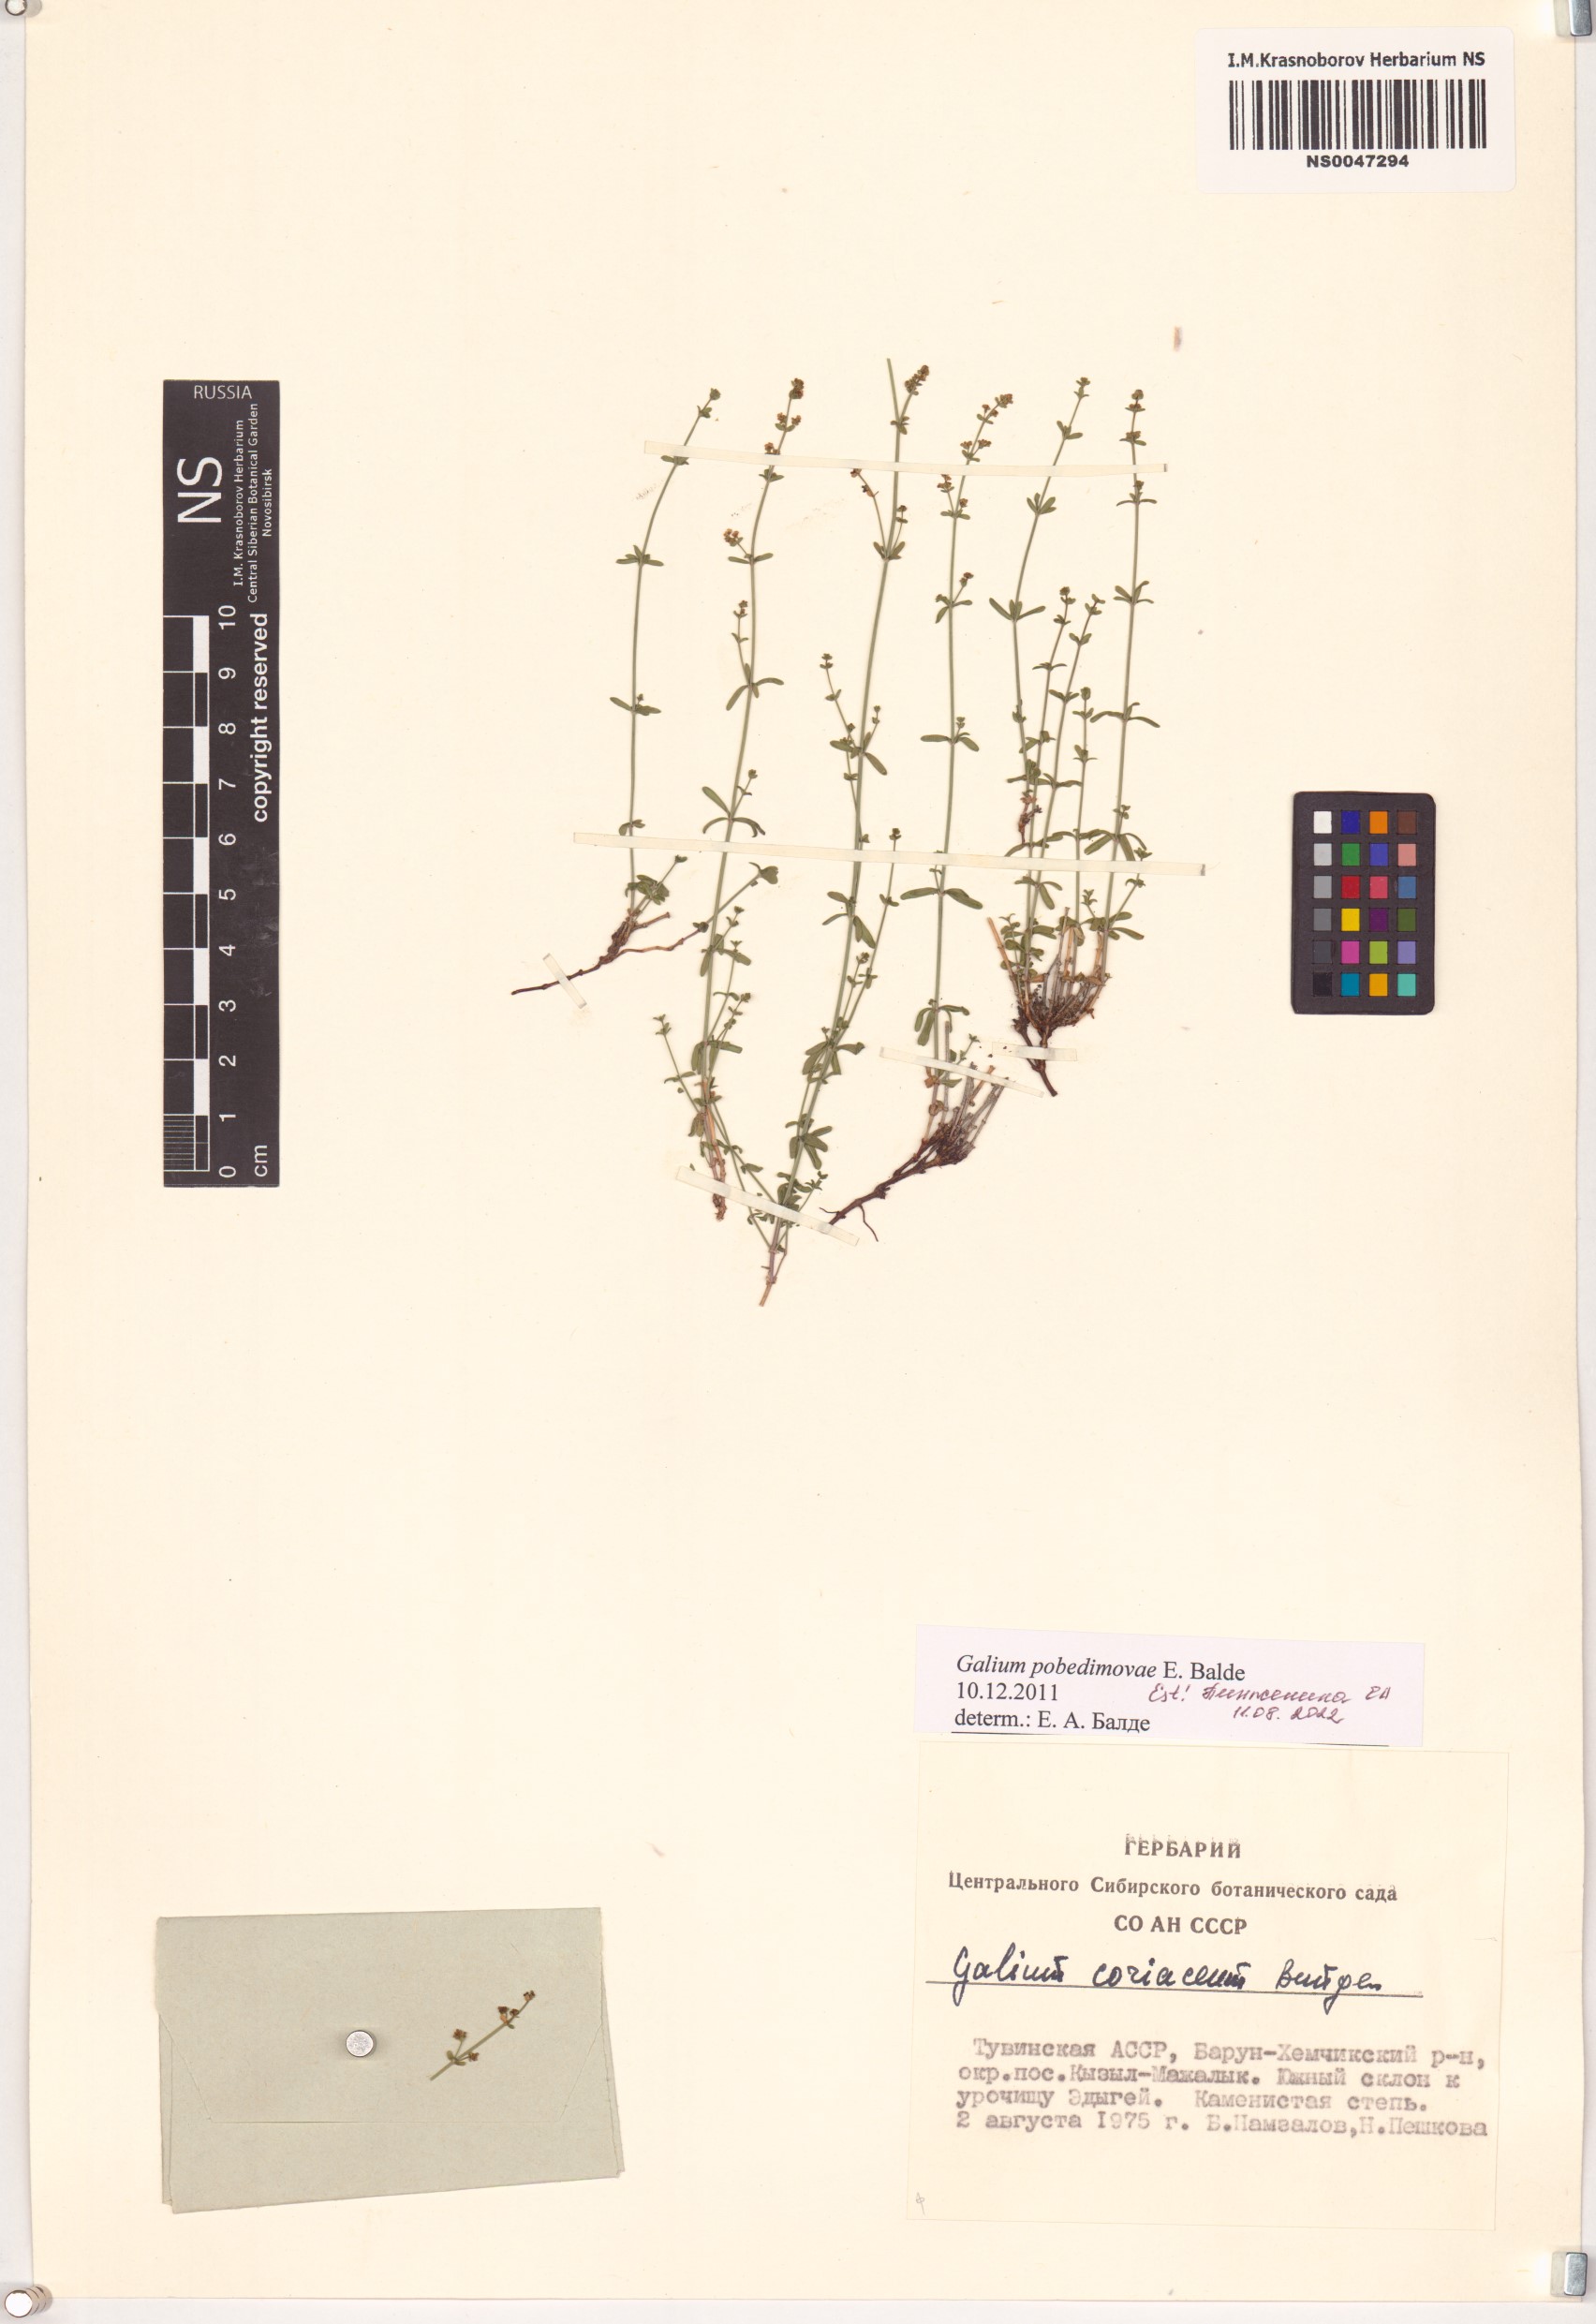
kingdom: Plantae
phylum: Tracheophyta
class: Magnoliopsida
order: Gentianales
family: Rubiaceae
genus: Galium
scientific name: Galium pobedimovae
